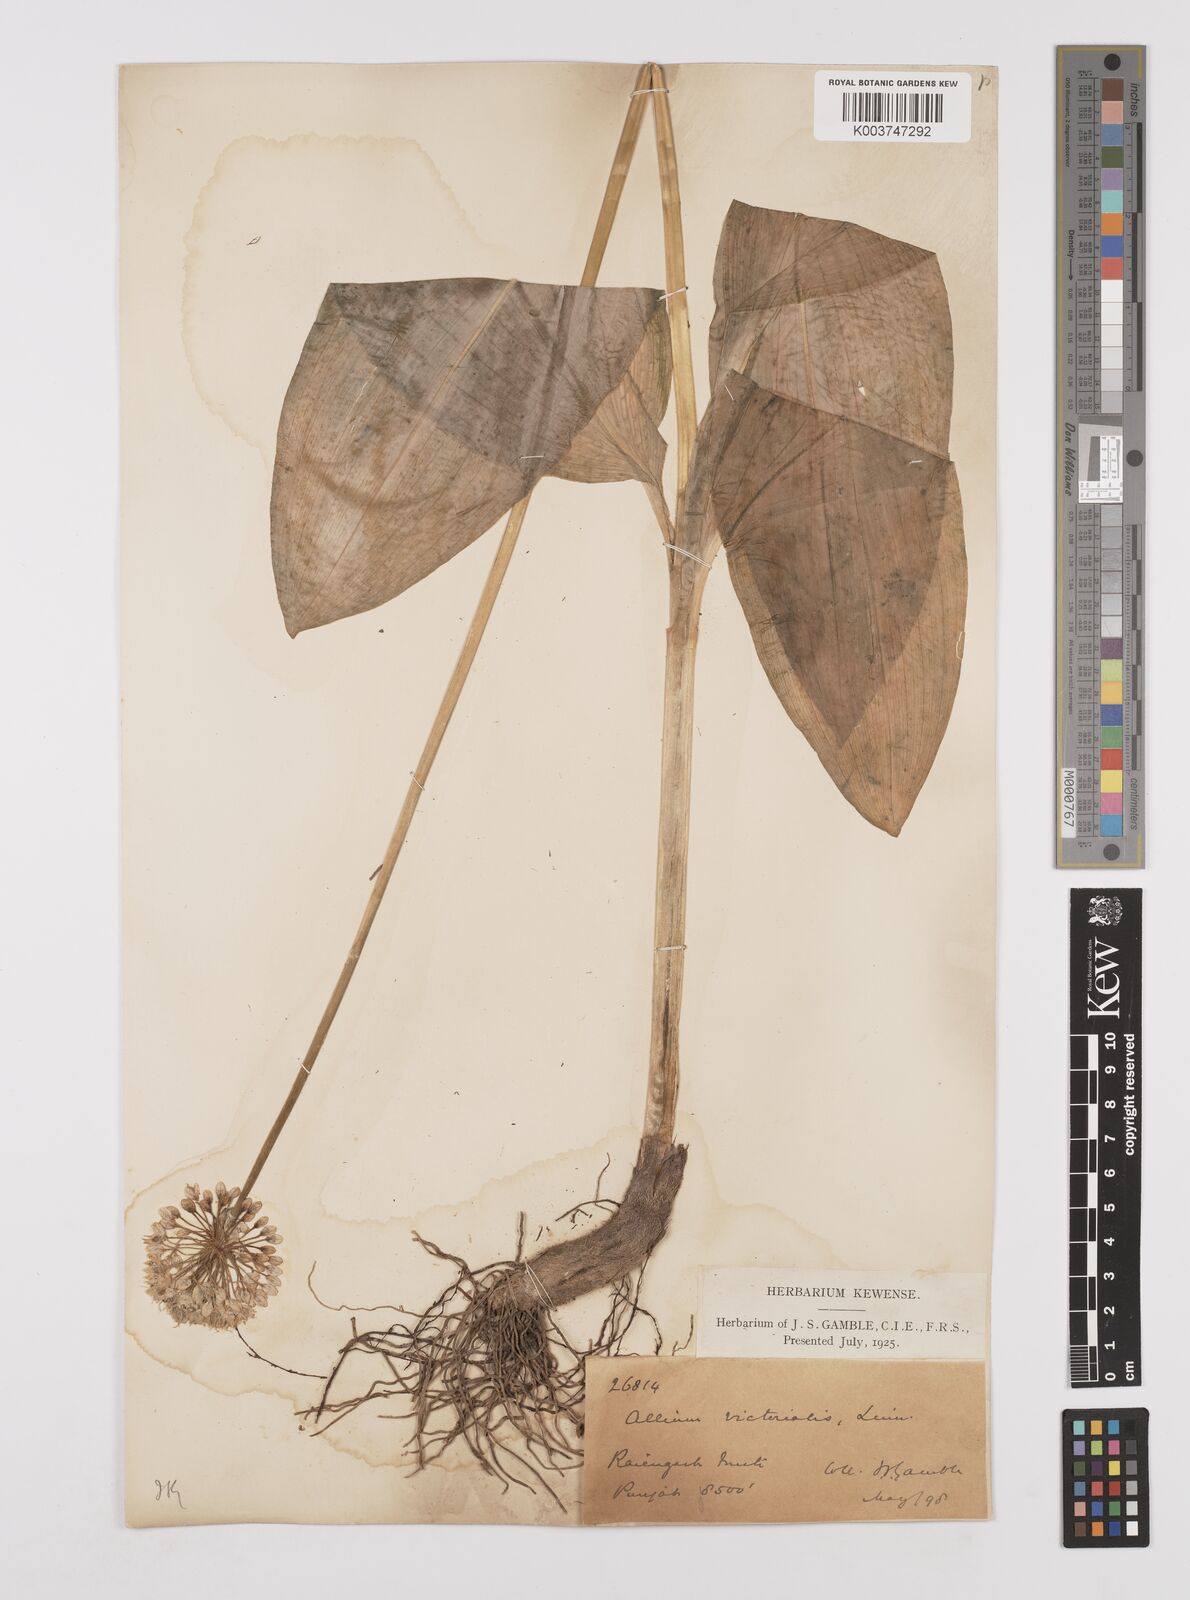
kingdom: Plantae
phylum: Tracheophyta
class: Liliopsida
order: Asparagales
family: Amaryllidaceae
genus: Allium
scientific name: Allium victorialis
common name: Alpine leek
